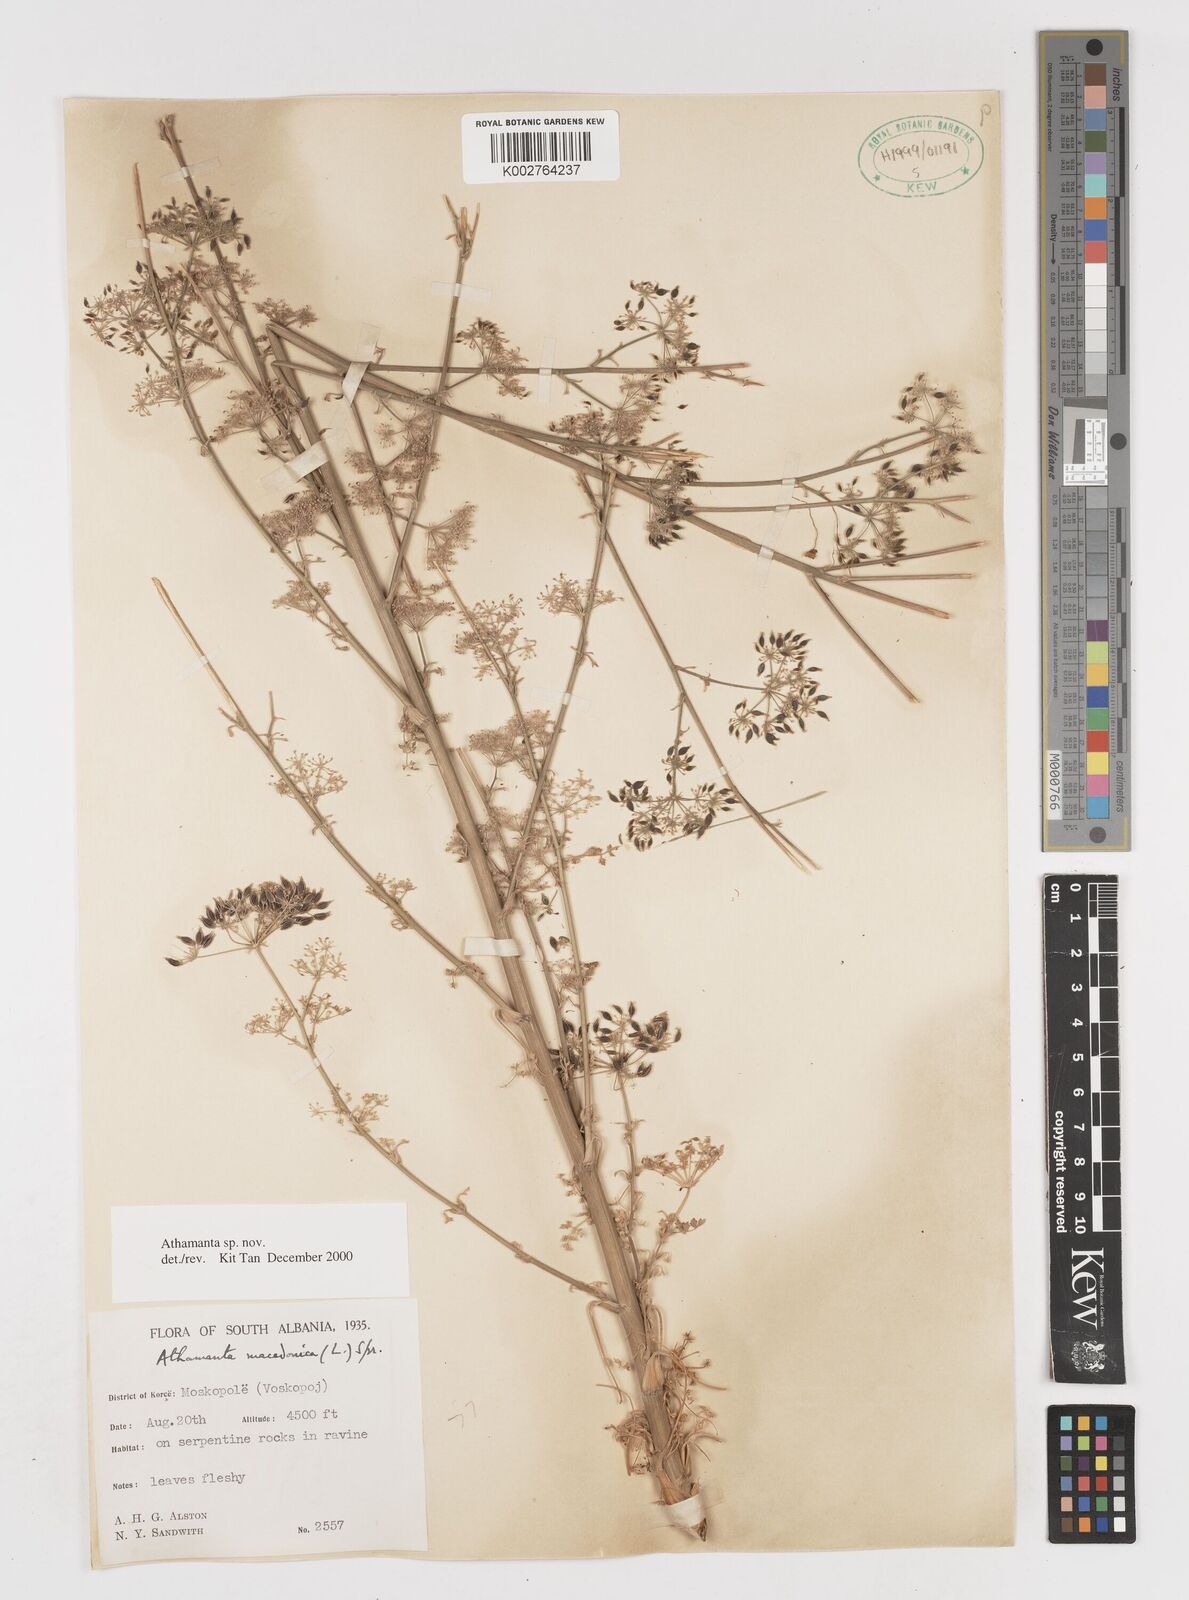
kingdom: Plantae
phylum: Tracheophyta
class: Magnoliopsida
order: Apiales
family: Apiaceae
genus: Athamanta
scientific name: Athamanta
